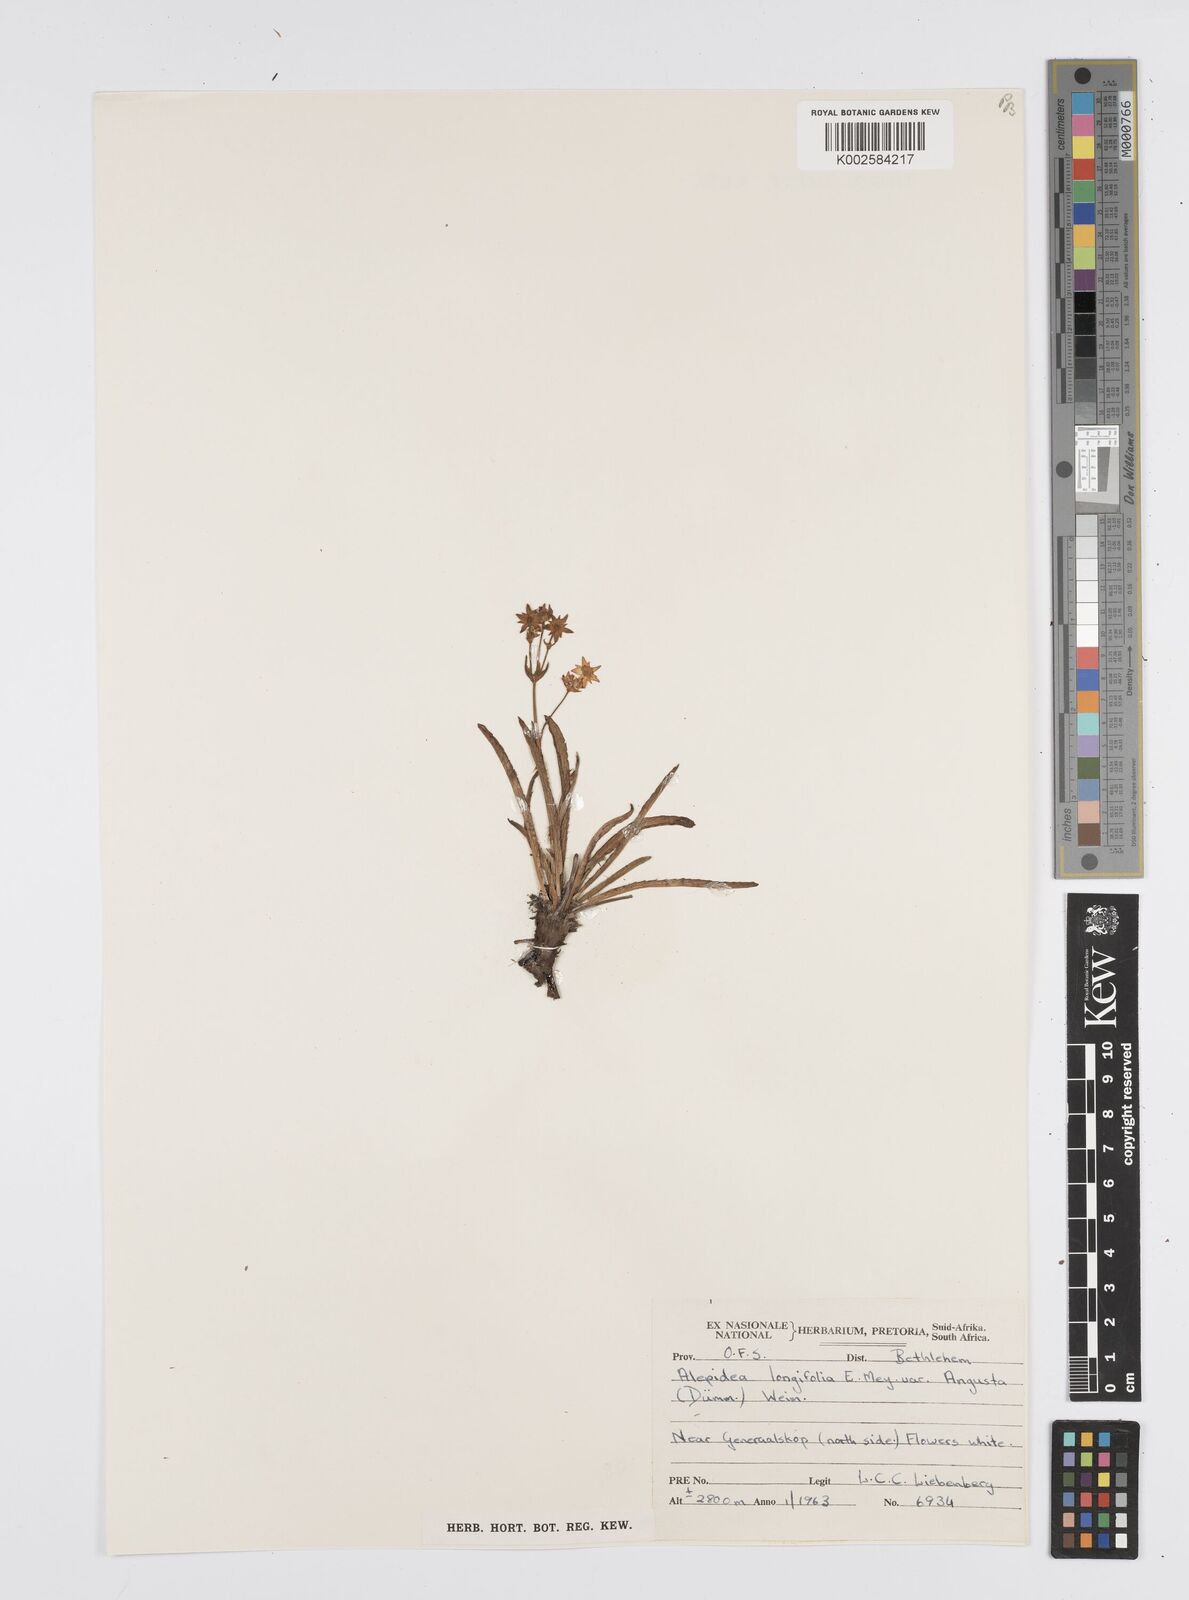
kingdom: Plantae
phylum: Tracheophyta
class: Magnoliopsida
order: Apiales
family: Apiaceae
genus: Alepidea
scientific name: Alepidea serrata
